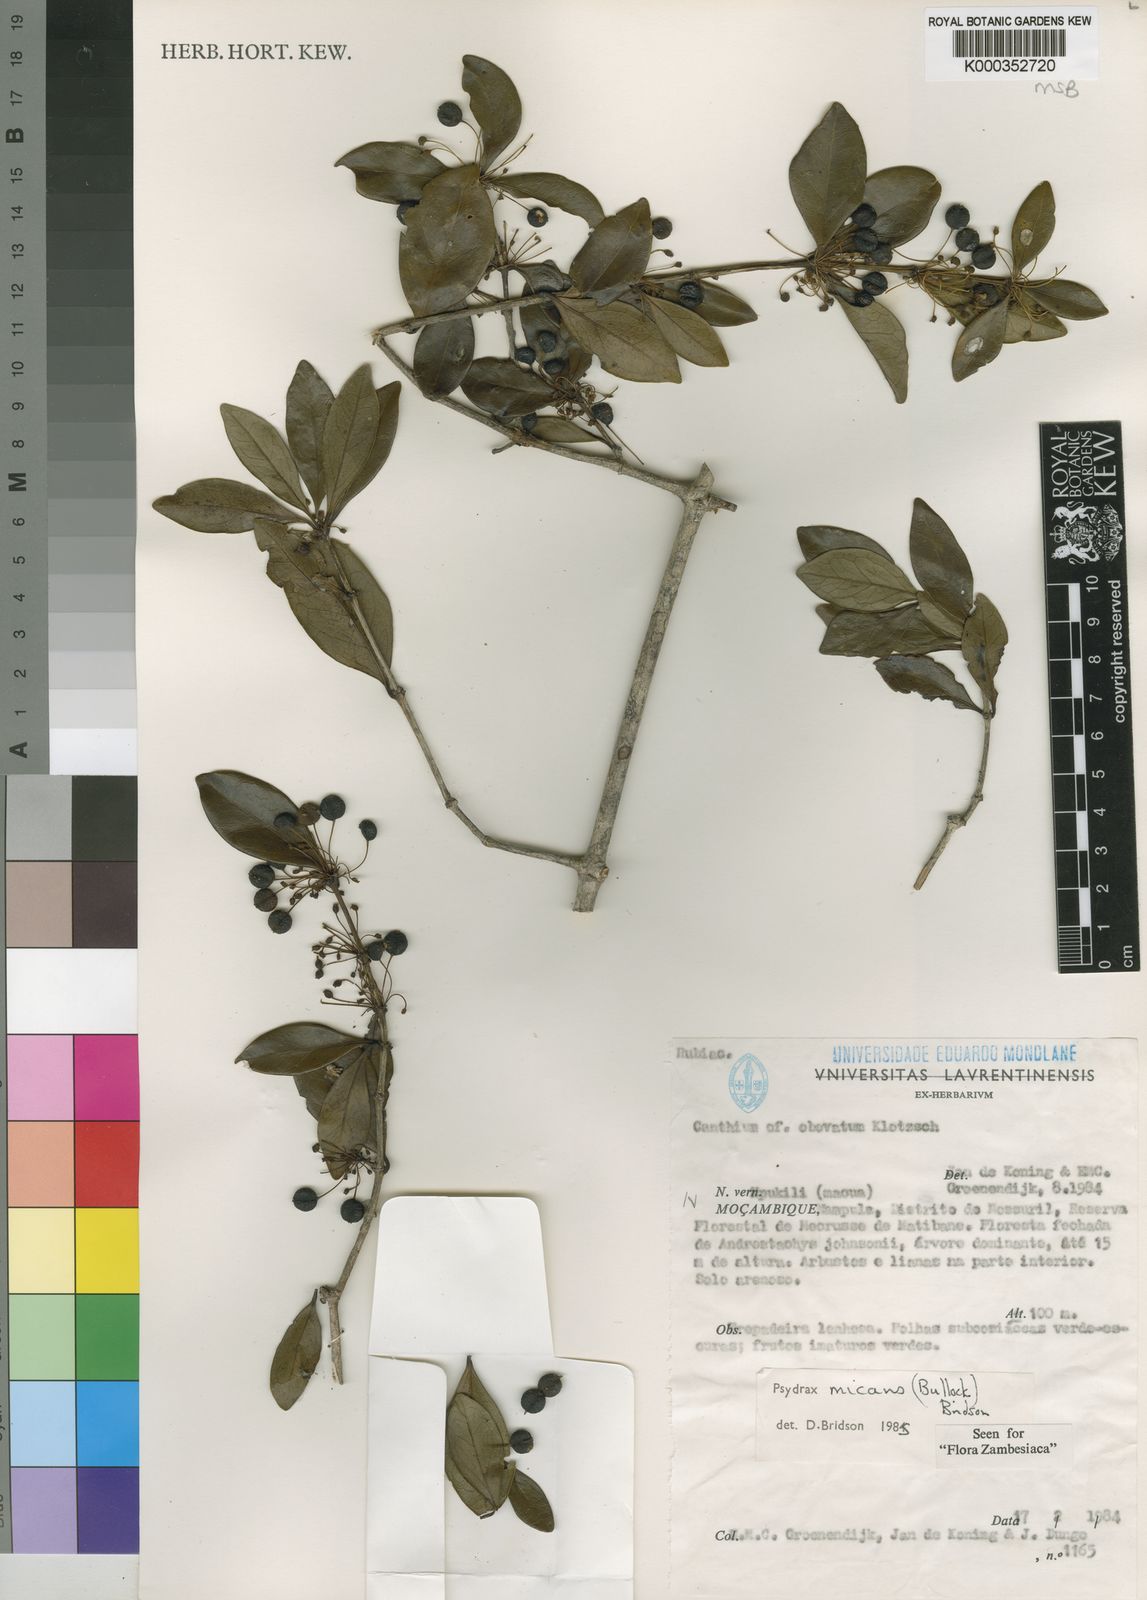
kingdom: Plantae
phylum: Tracheophyta
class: Magnoliopsida
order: Gentianales
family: Rubiaceae
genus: Psydrax
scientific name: Psydrax micans
